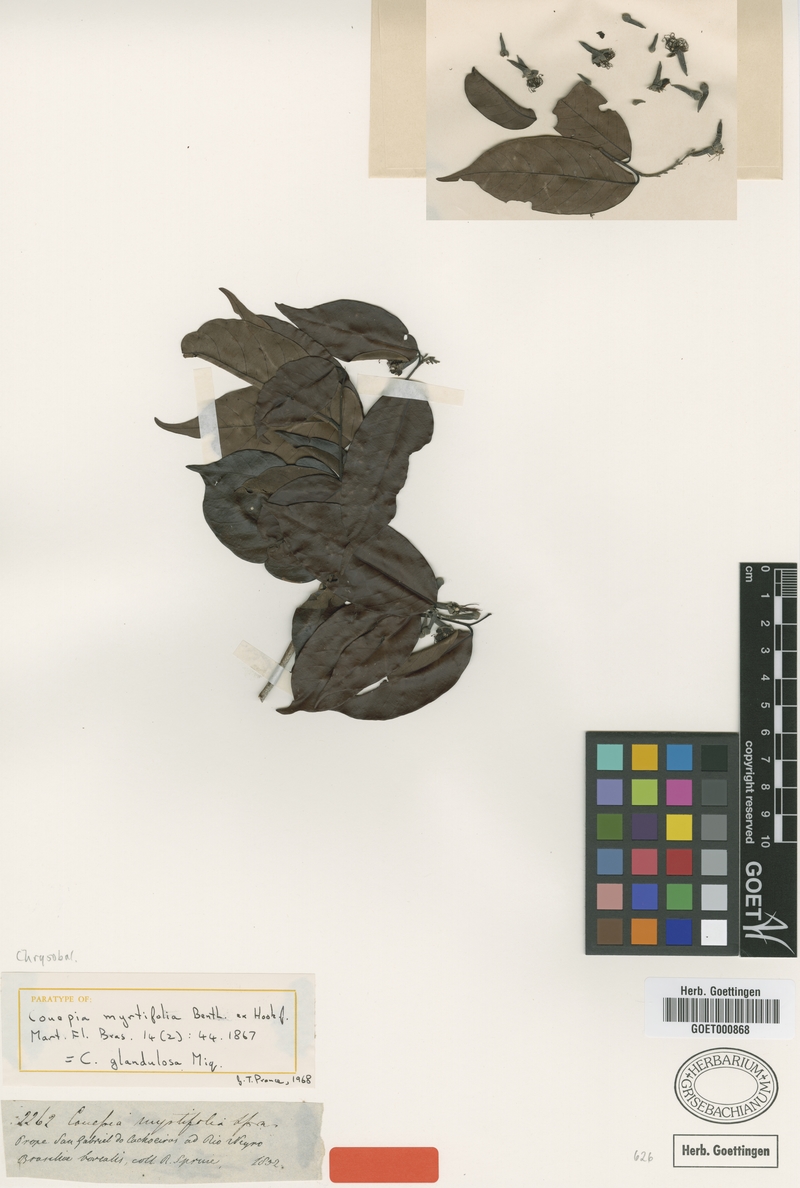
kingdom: Plantae
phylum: Tracheophyta
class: Magnoliopsida
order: Malpighiales
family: Chrysobalanaceae
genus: Couepia
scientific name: Couepia guianensis
